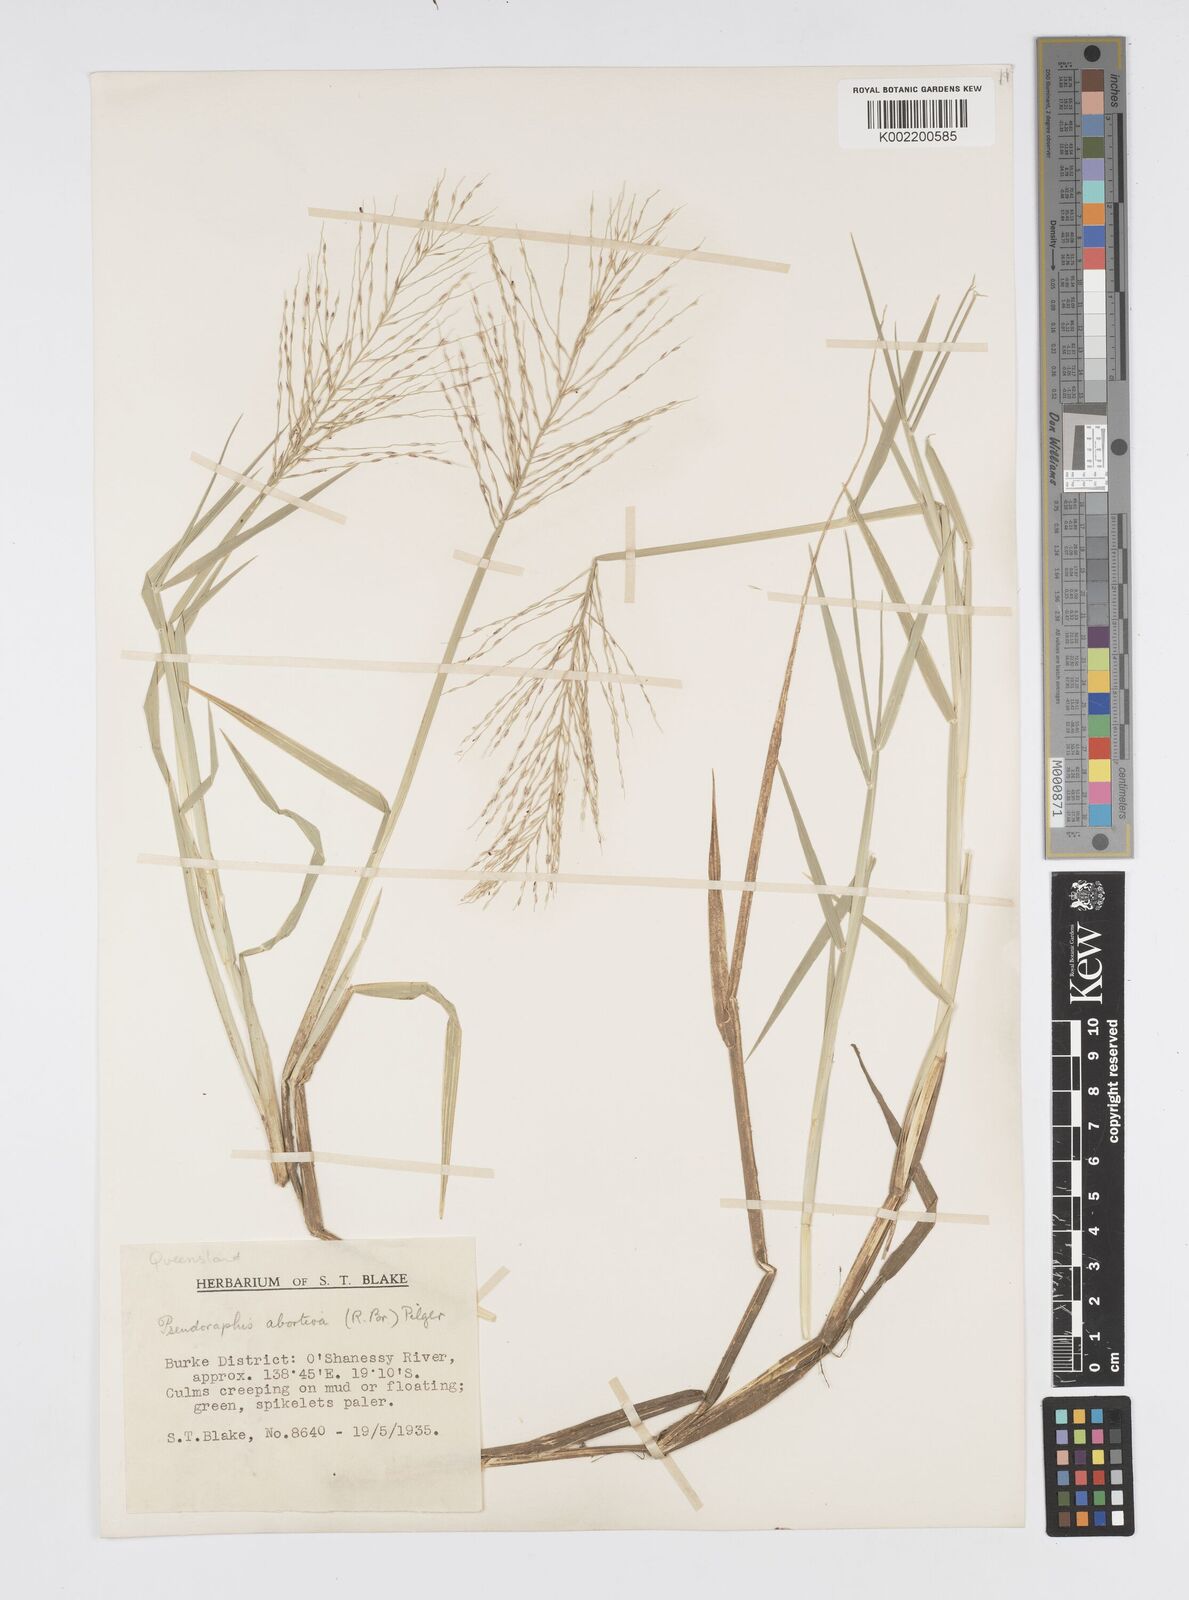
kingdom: Plantae
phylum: Tracheophyta
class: Liliopsida
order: Poales
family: Poaceae
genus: Pseudoraphis
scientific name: Pseudoraphis spinescens
